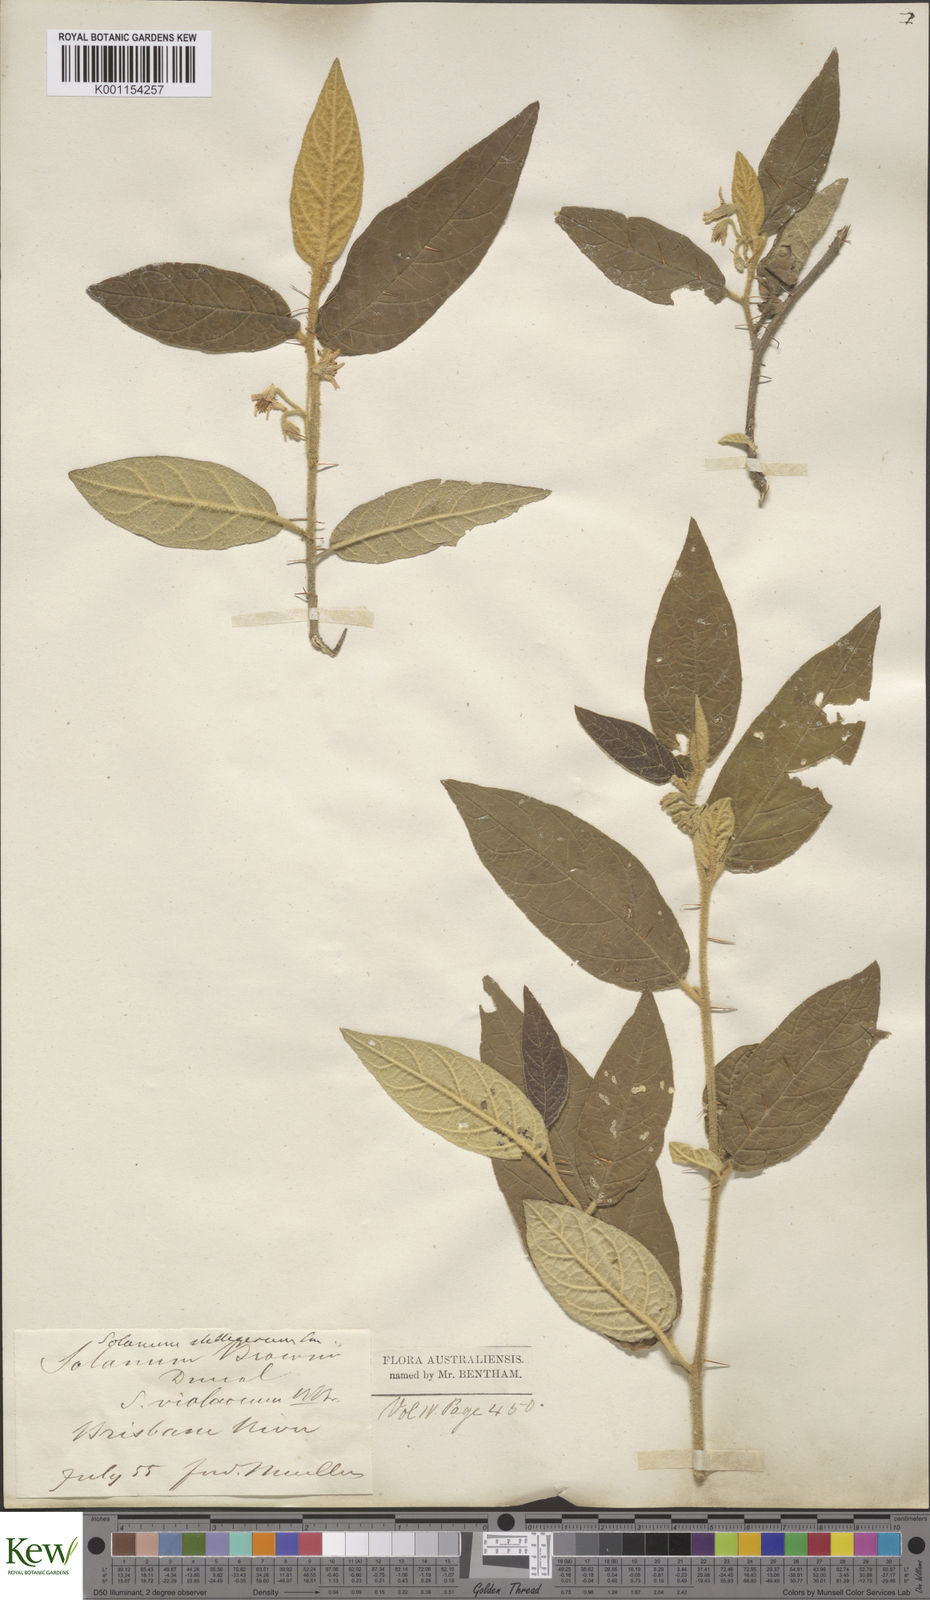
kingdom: Plantae
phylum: Tracheophyta
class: Magnoliopsida
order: Solanales
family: Solanaceae
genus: Solanum
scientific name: Solanum stelligerum
